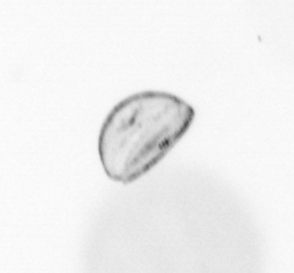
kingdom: Chromista
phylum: Ochrophyta
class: Bacillariophyceae
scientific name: Bacillariophyceae
